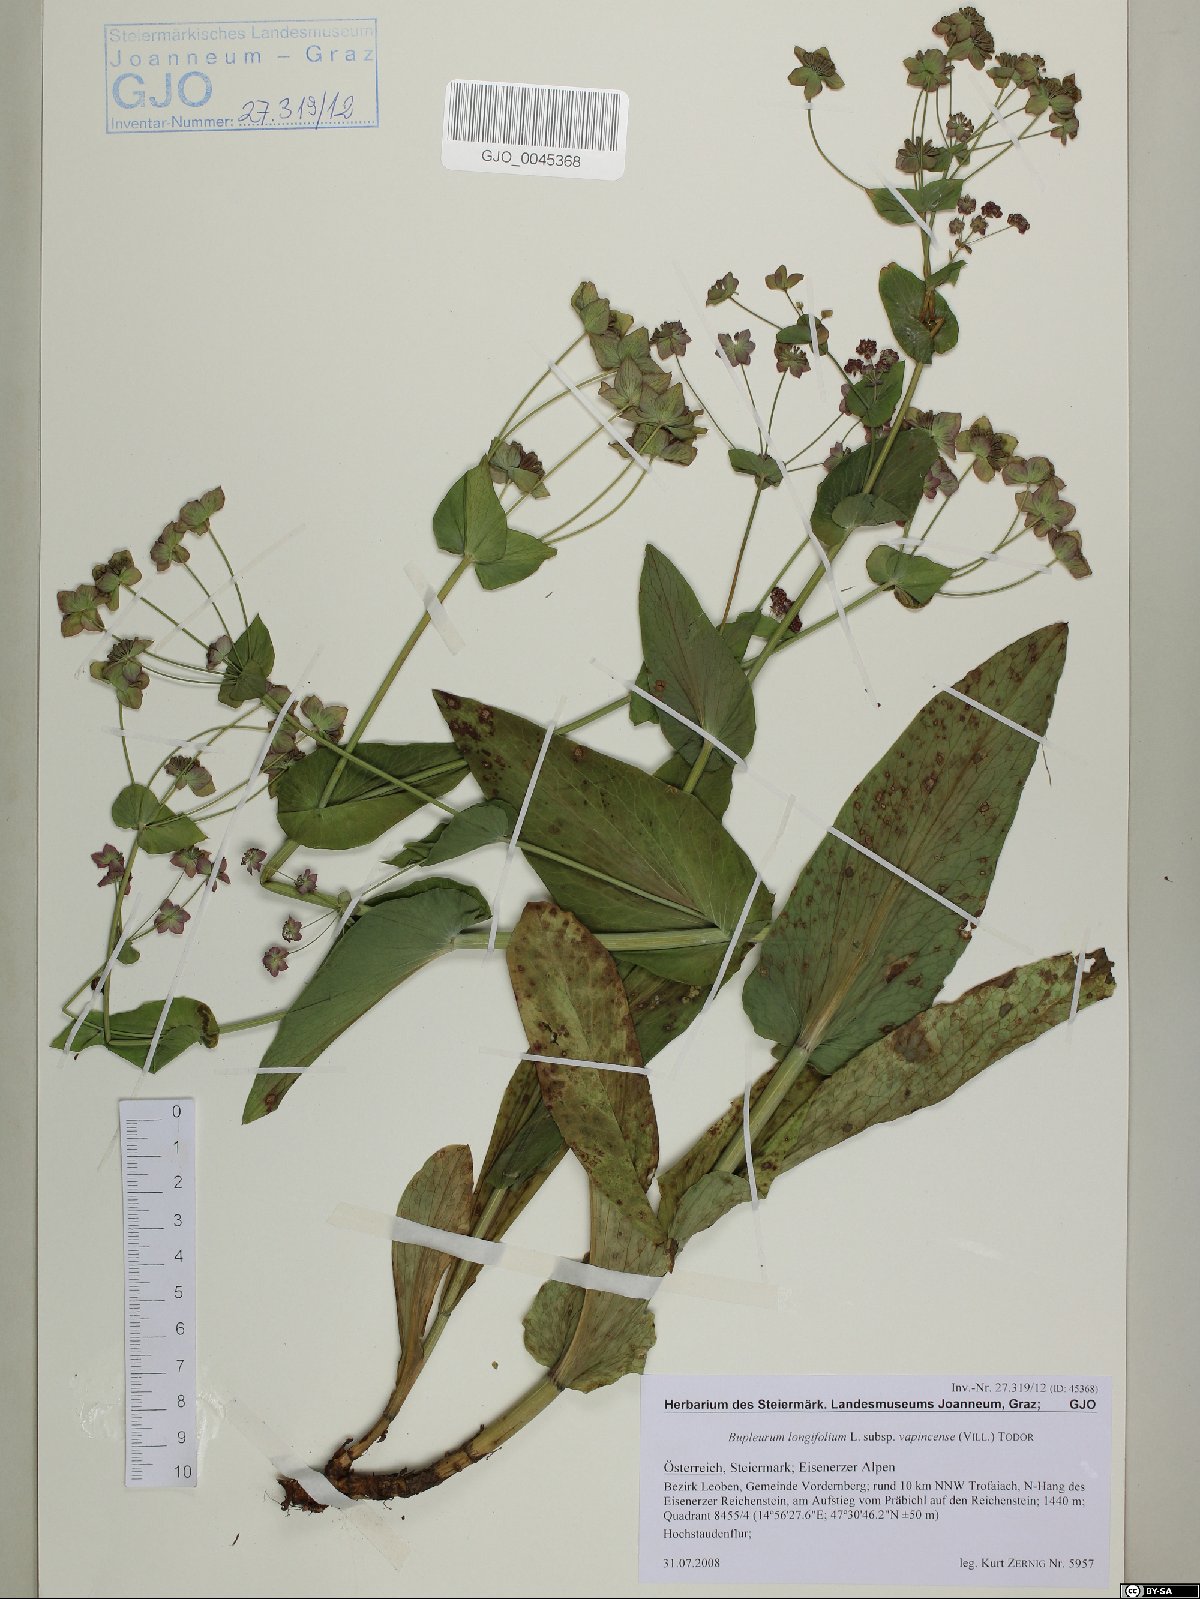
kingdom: Plantae
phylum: Tracheophyta
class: Magnoliopsida
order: Apiales
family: Apiaceae
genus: Bupleurum
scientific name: Bupleurum longifolium
